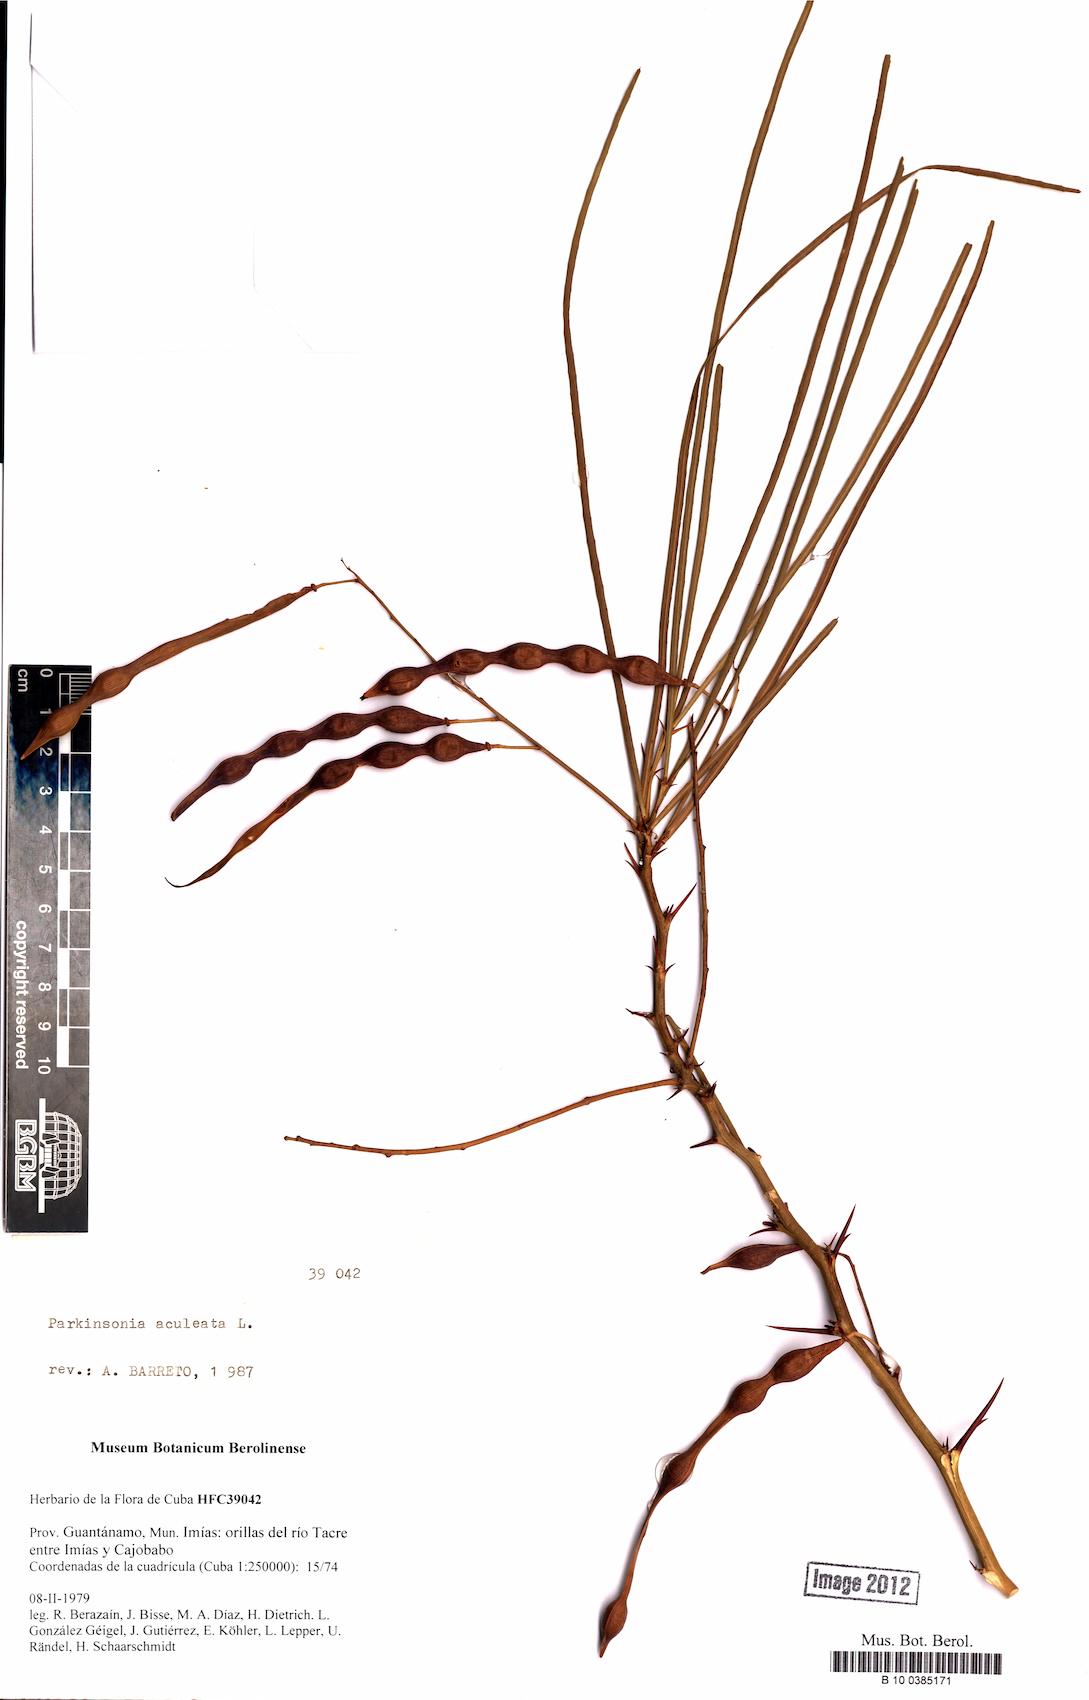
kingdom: Plantae
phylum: Tracheophyta
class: Magnoliopsida
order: Fabales
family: Fabaceae
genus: Parkinsonia
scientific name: Parkinsonia aculeata
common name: Jerusalem thorn
